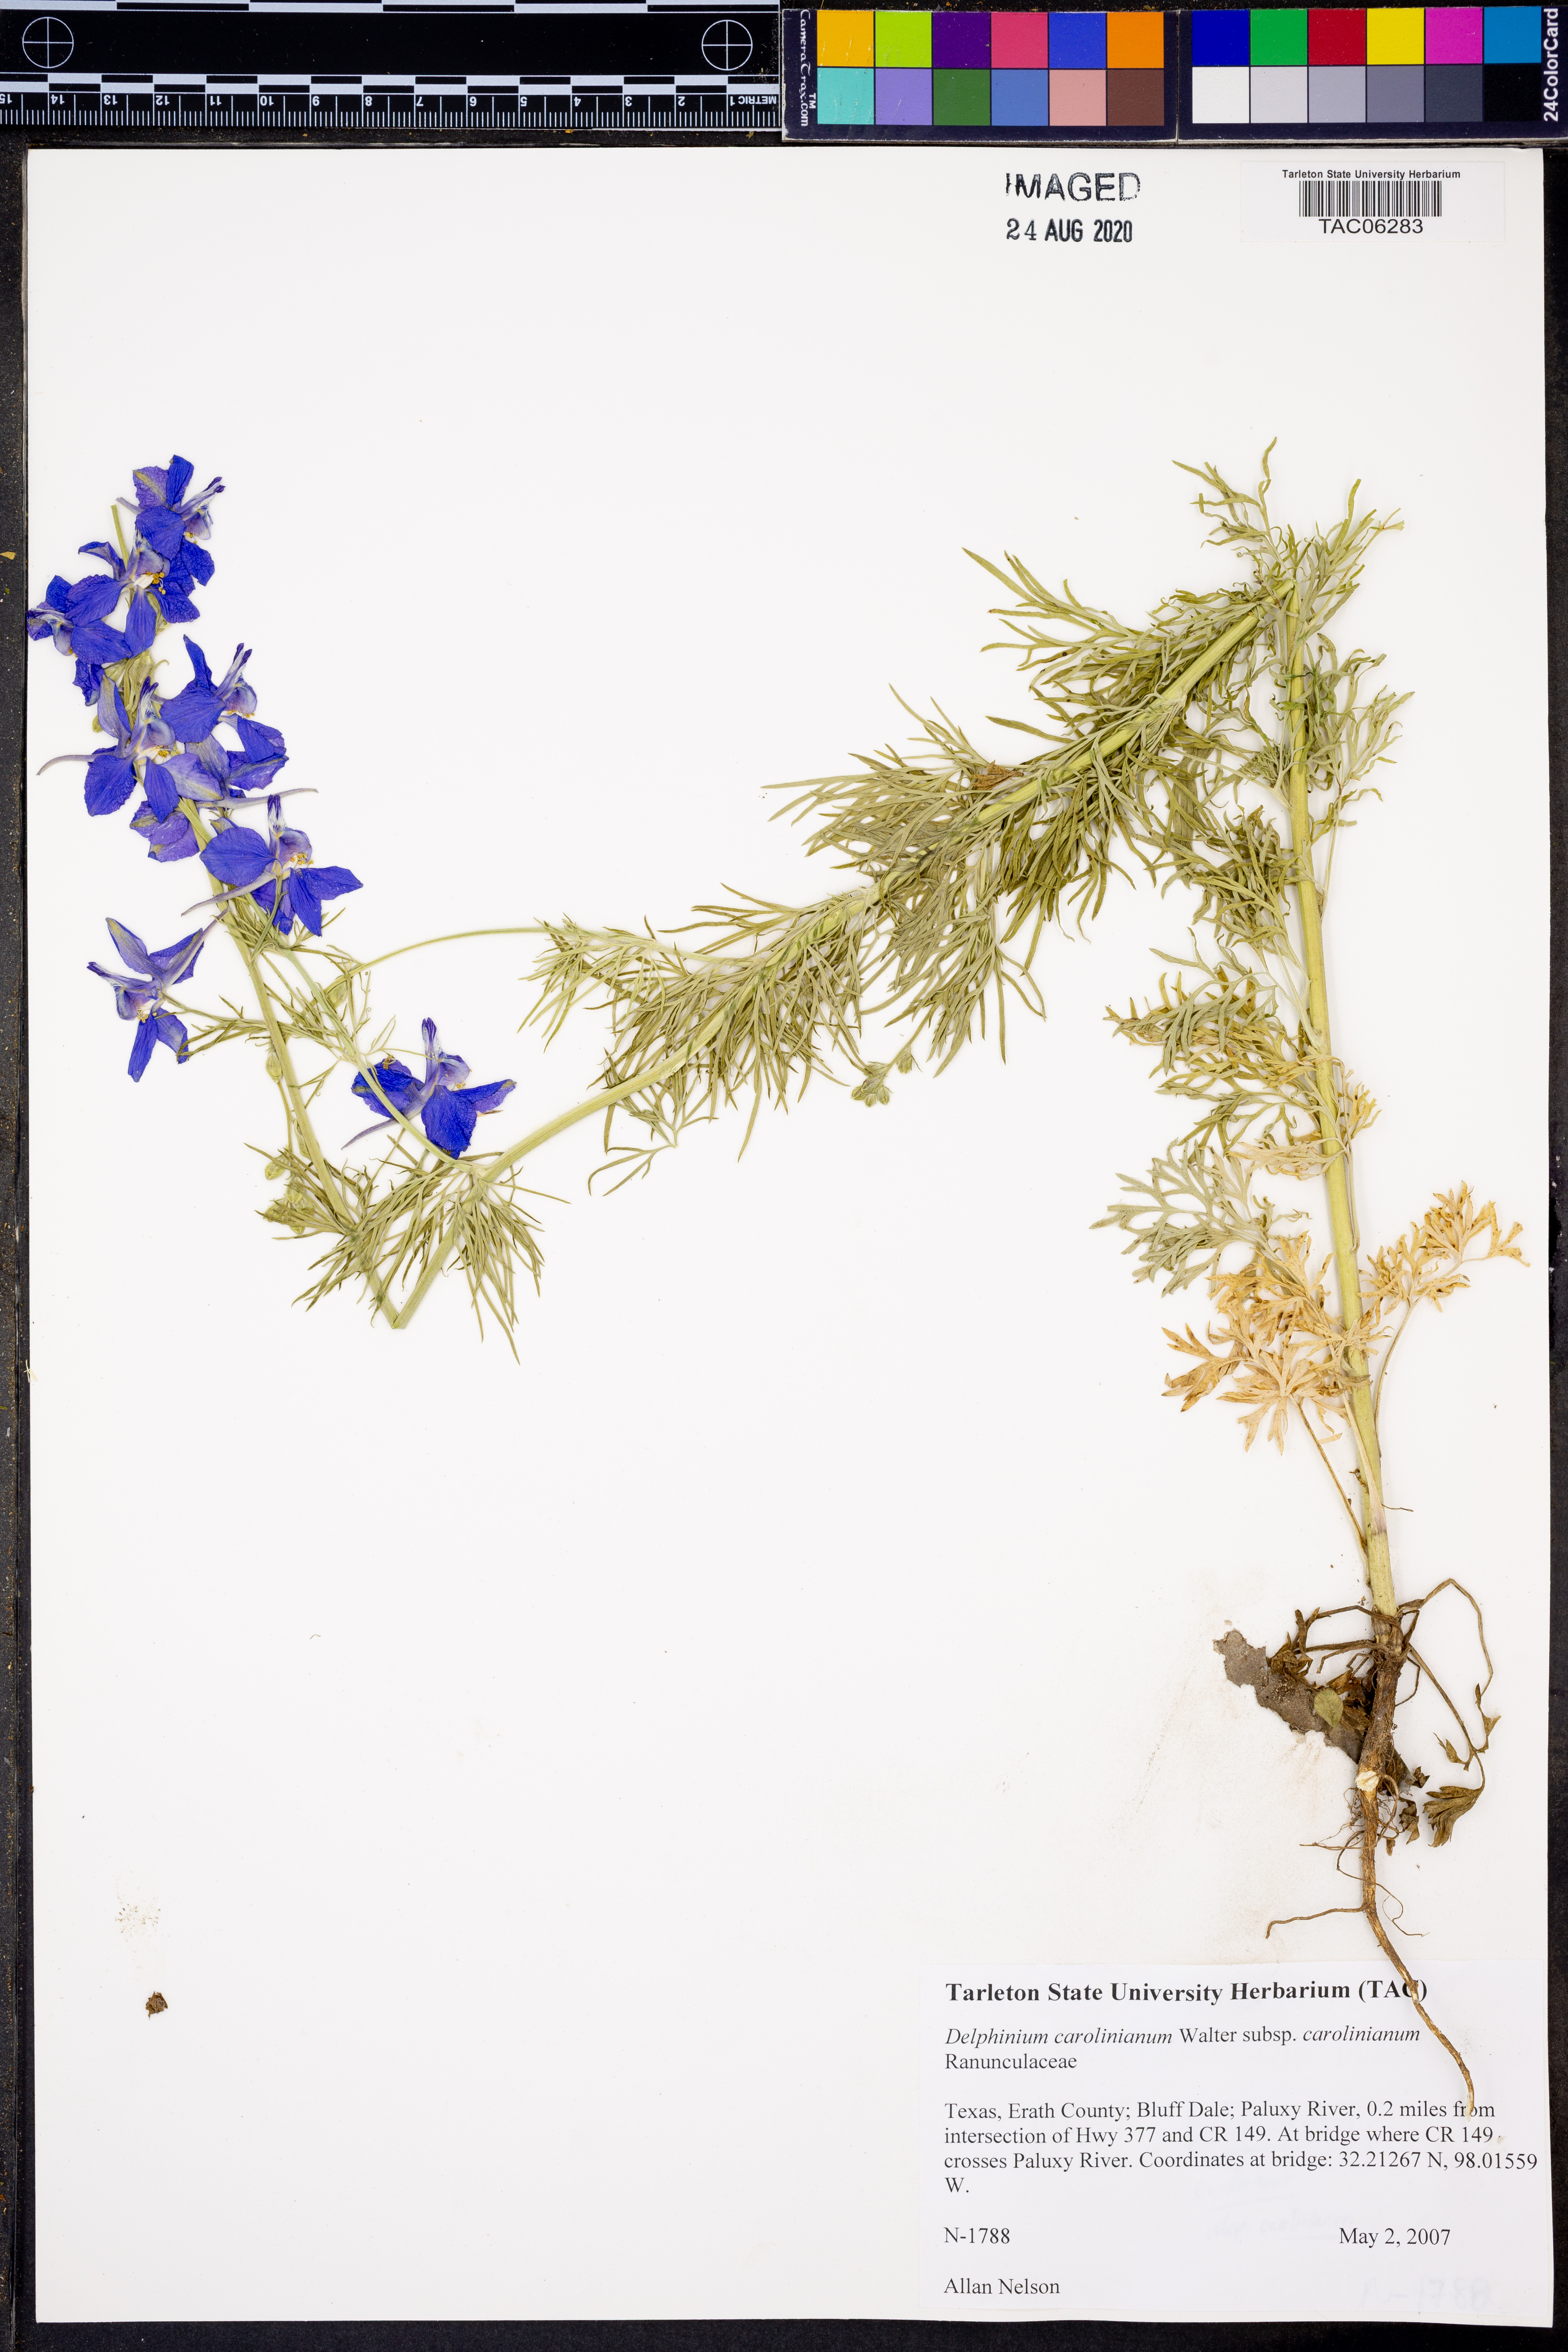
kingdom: Plantae
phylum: Tracheophyta
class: Magnoliopsida
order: Ranunculales
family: Ranunculaceae
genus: Delphinium
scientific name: Delphinium carolinianum
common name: Carolina larkspur
